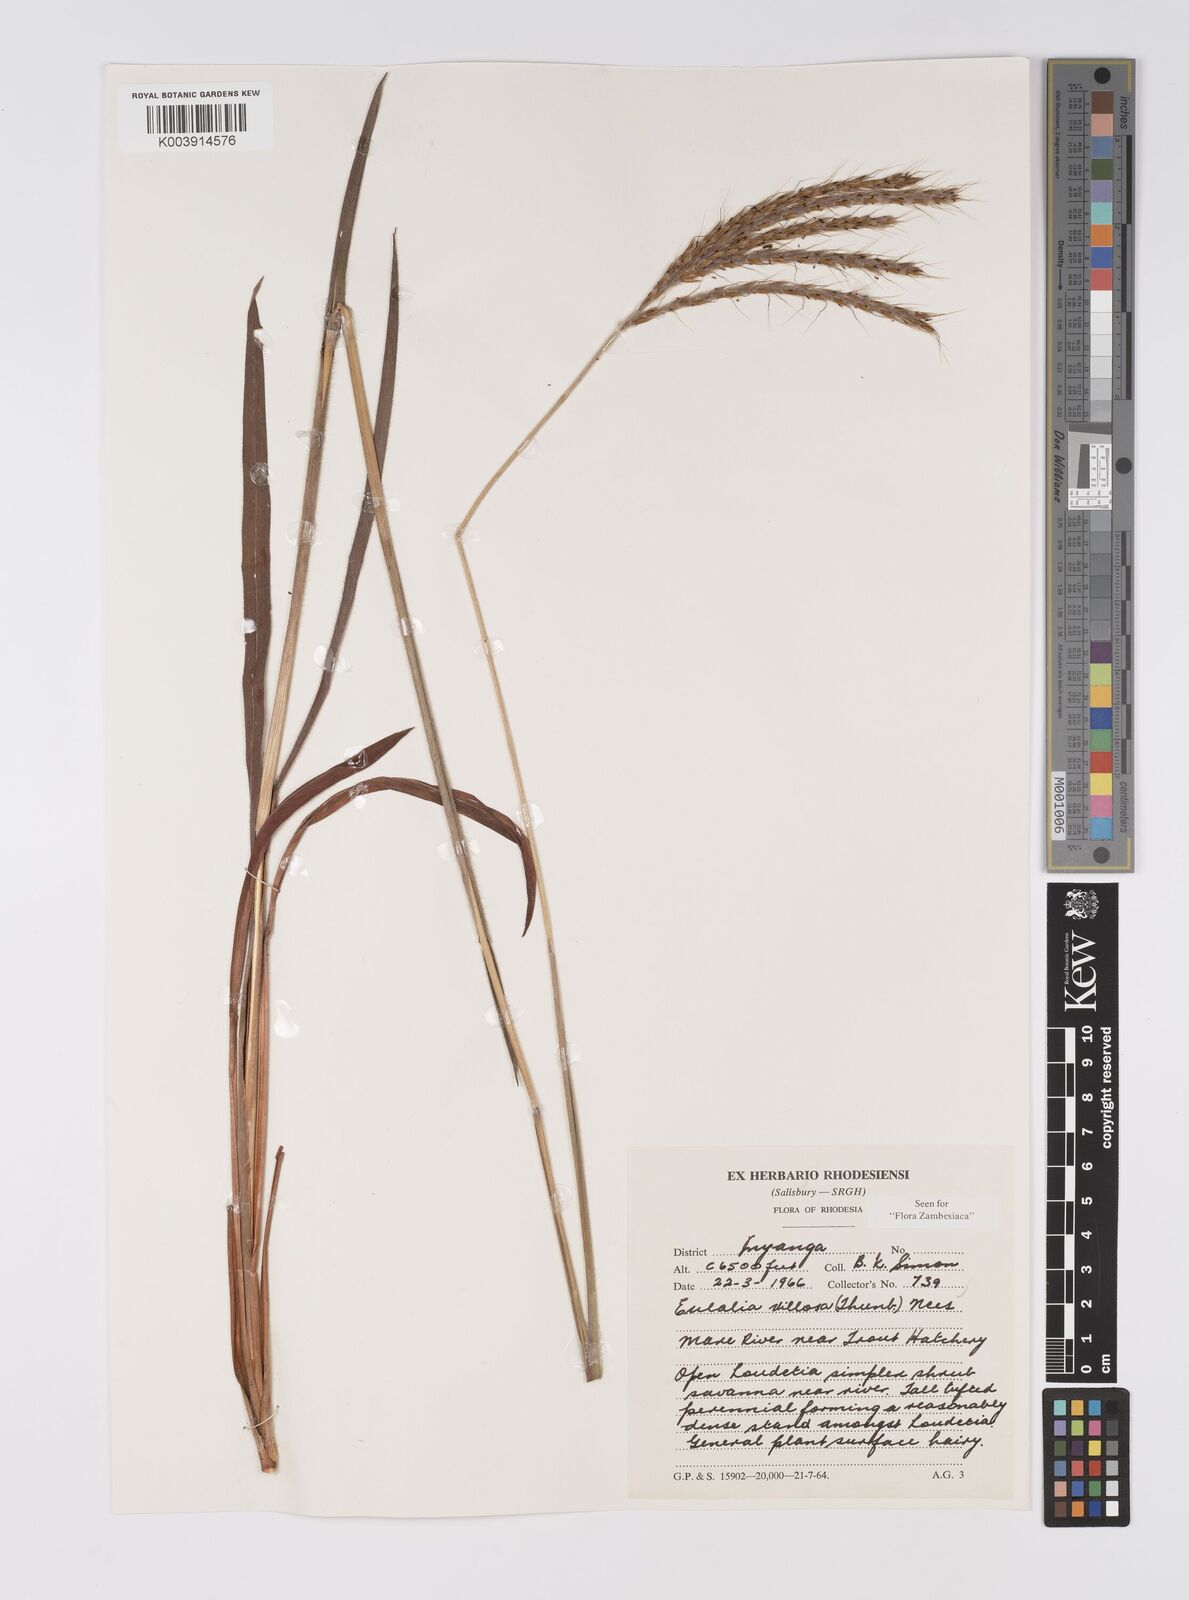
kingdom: Plantae
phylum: Tracheophyta
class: Liliopsida
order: Poales
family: Poaceae
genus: Eulalia
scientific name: Eulalia villosa
